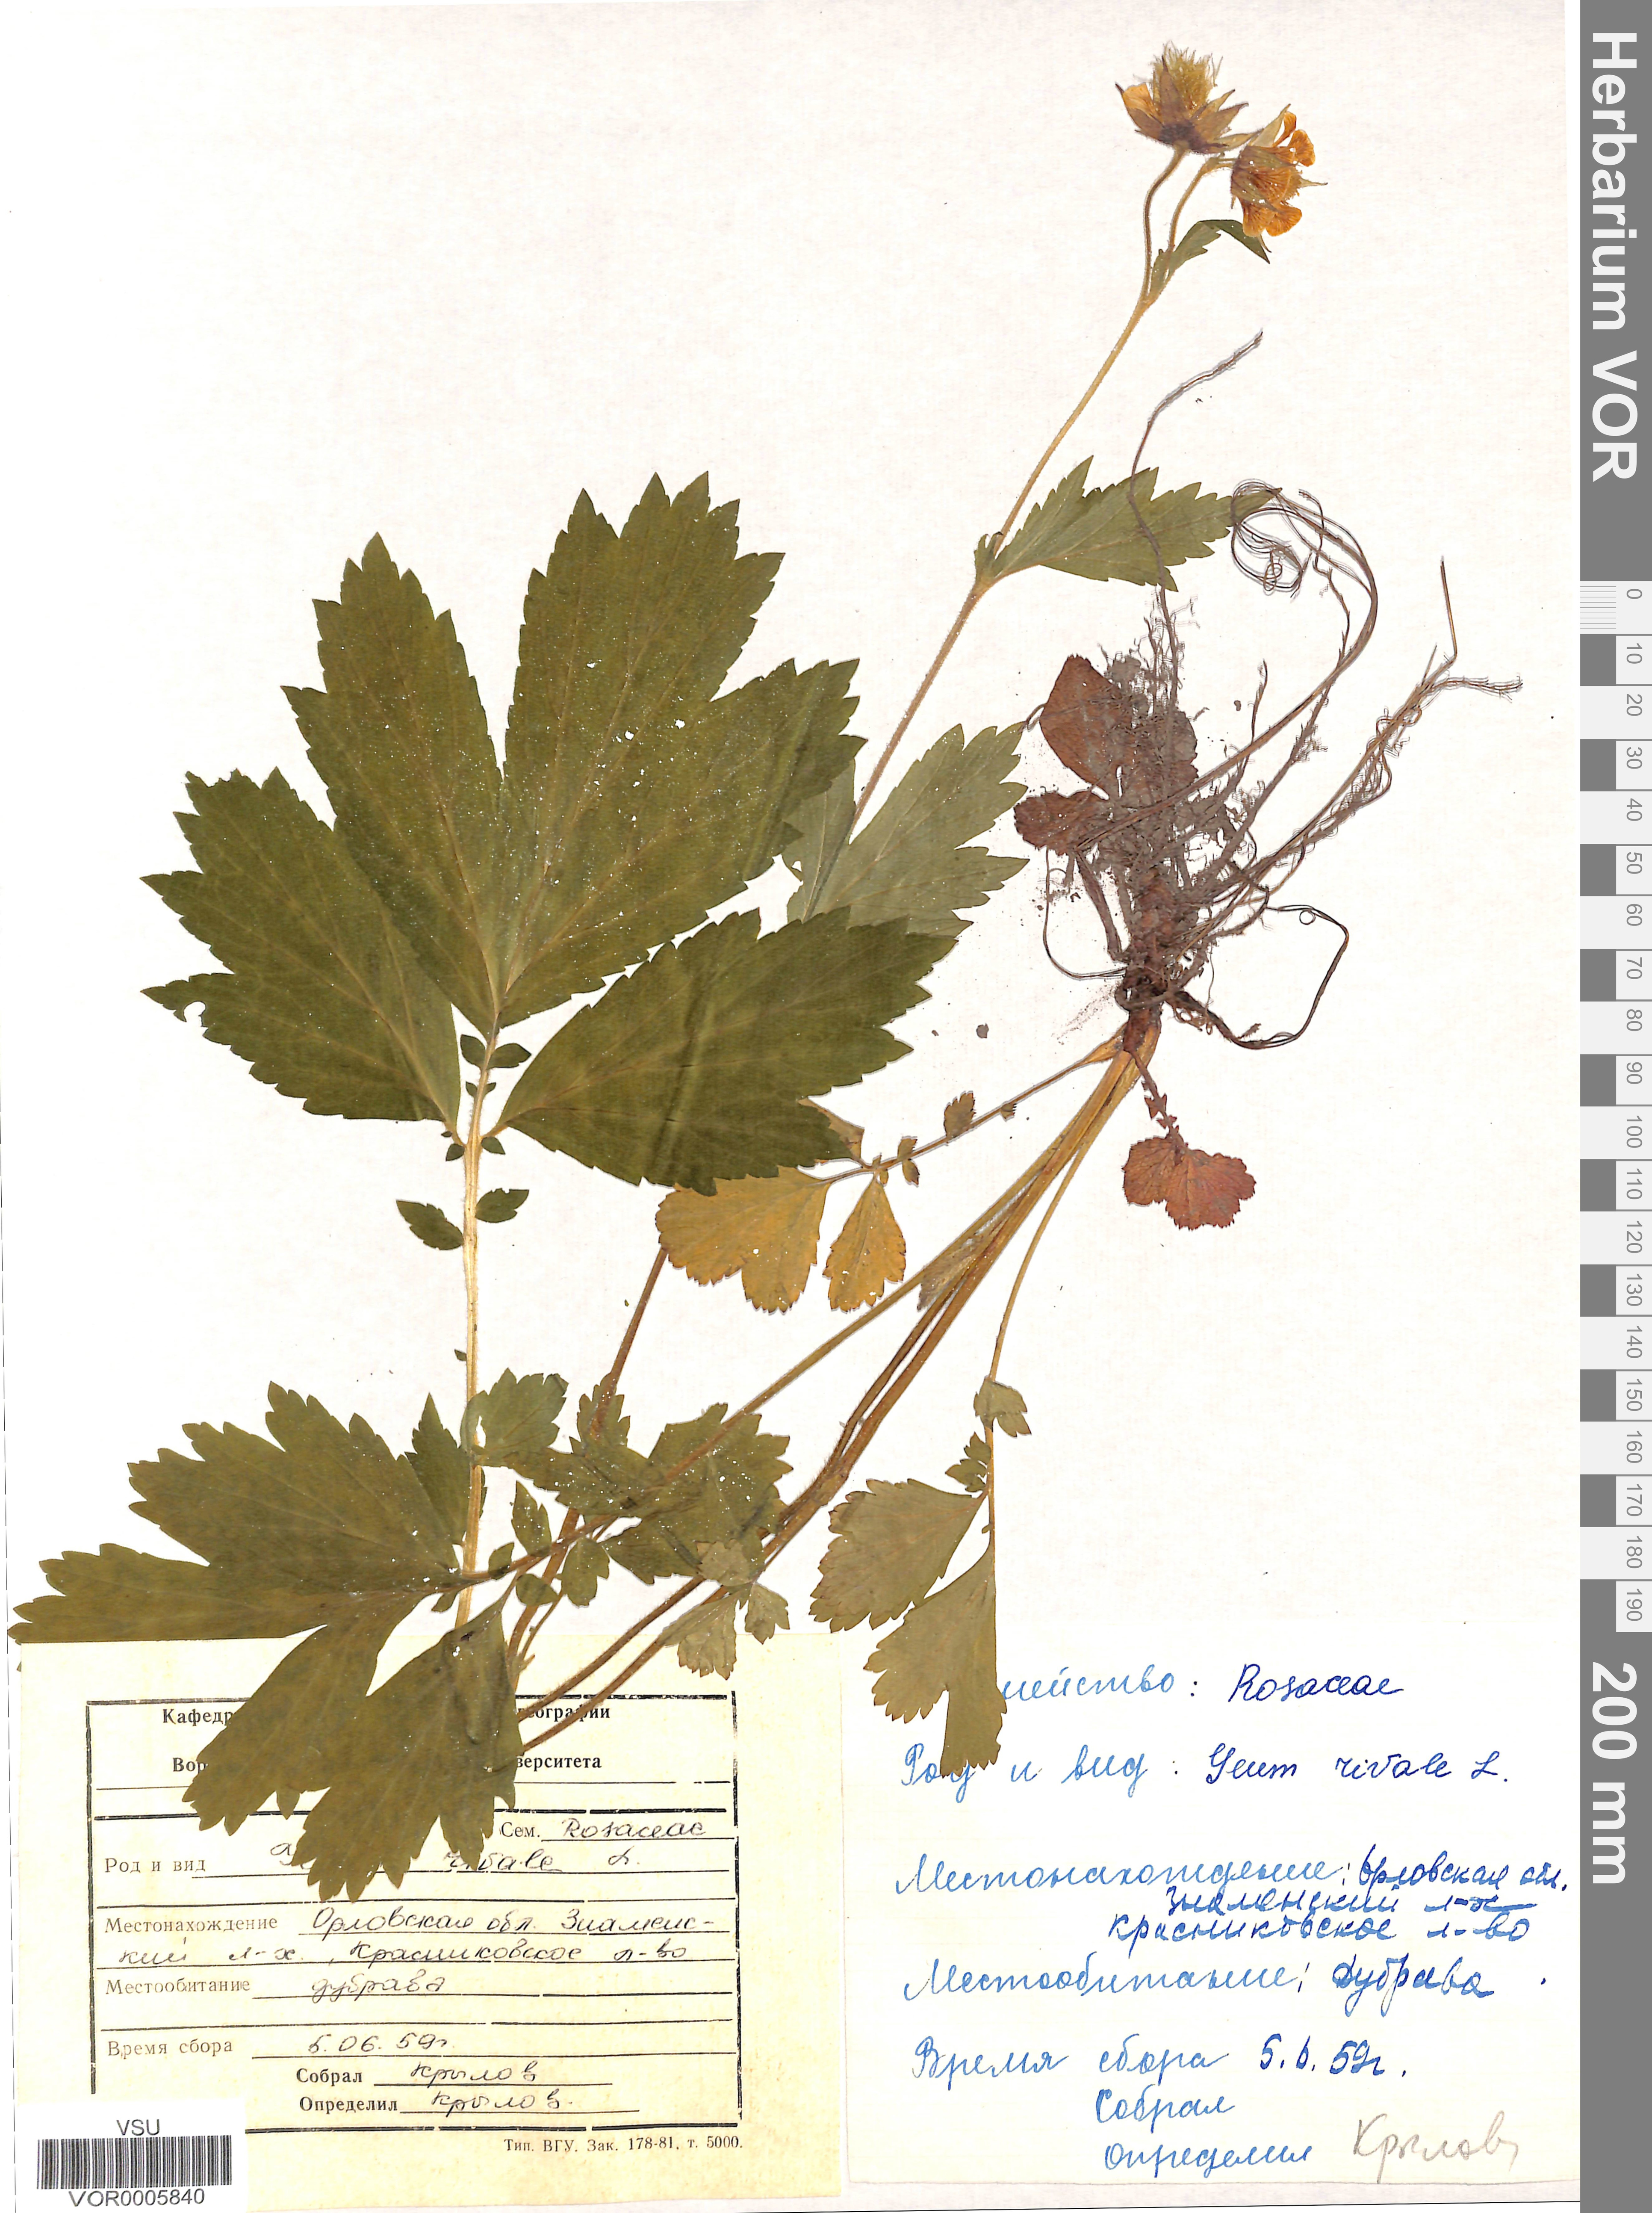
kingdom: Plantae
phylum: Tracheophyta
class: Magnoliopsida
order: Rosales
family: Rosaceae
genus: Geum
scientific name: Geum rivale
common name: Water avens
